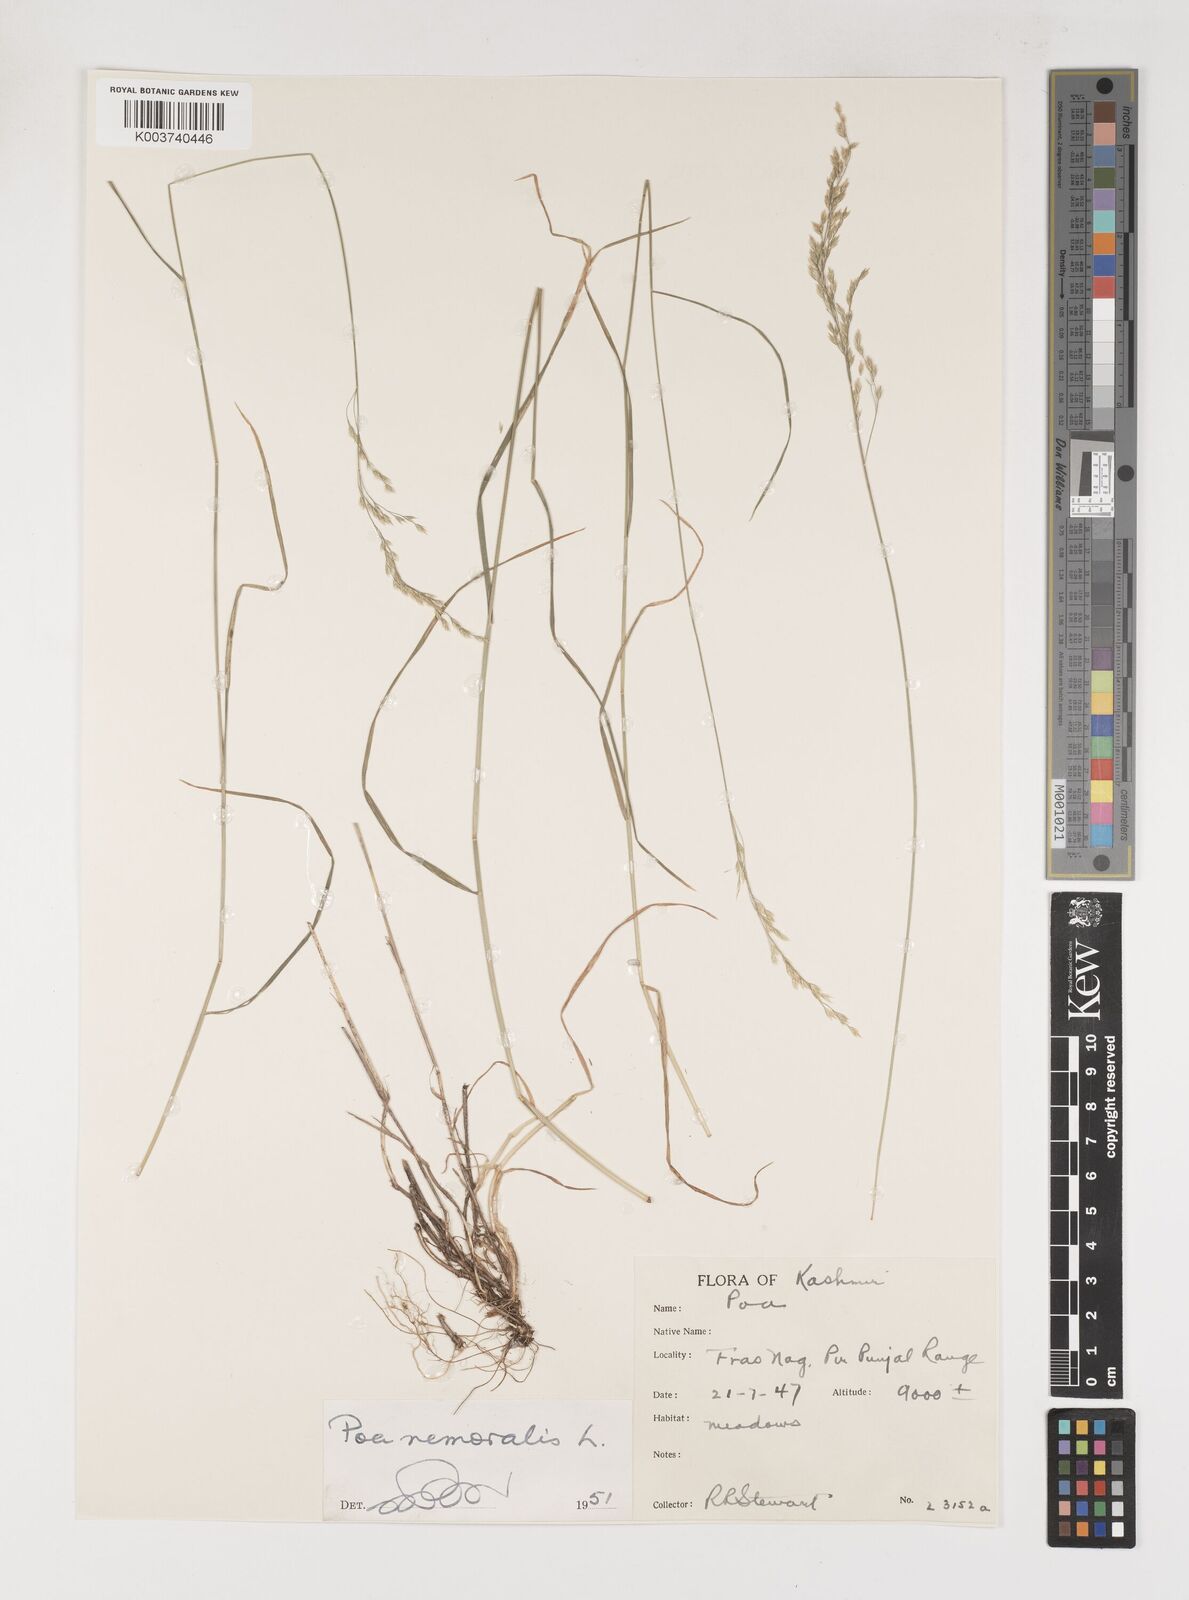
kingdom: Plantae
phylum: Tracheophyta
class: Liliopsida
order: Poales
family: Poaceae
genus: Poa
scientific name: Poa nemoralis
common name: Wood bluegrass
